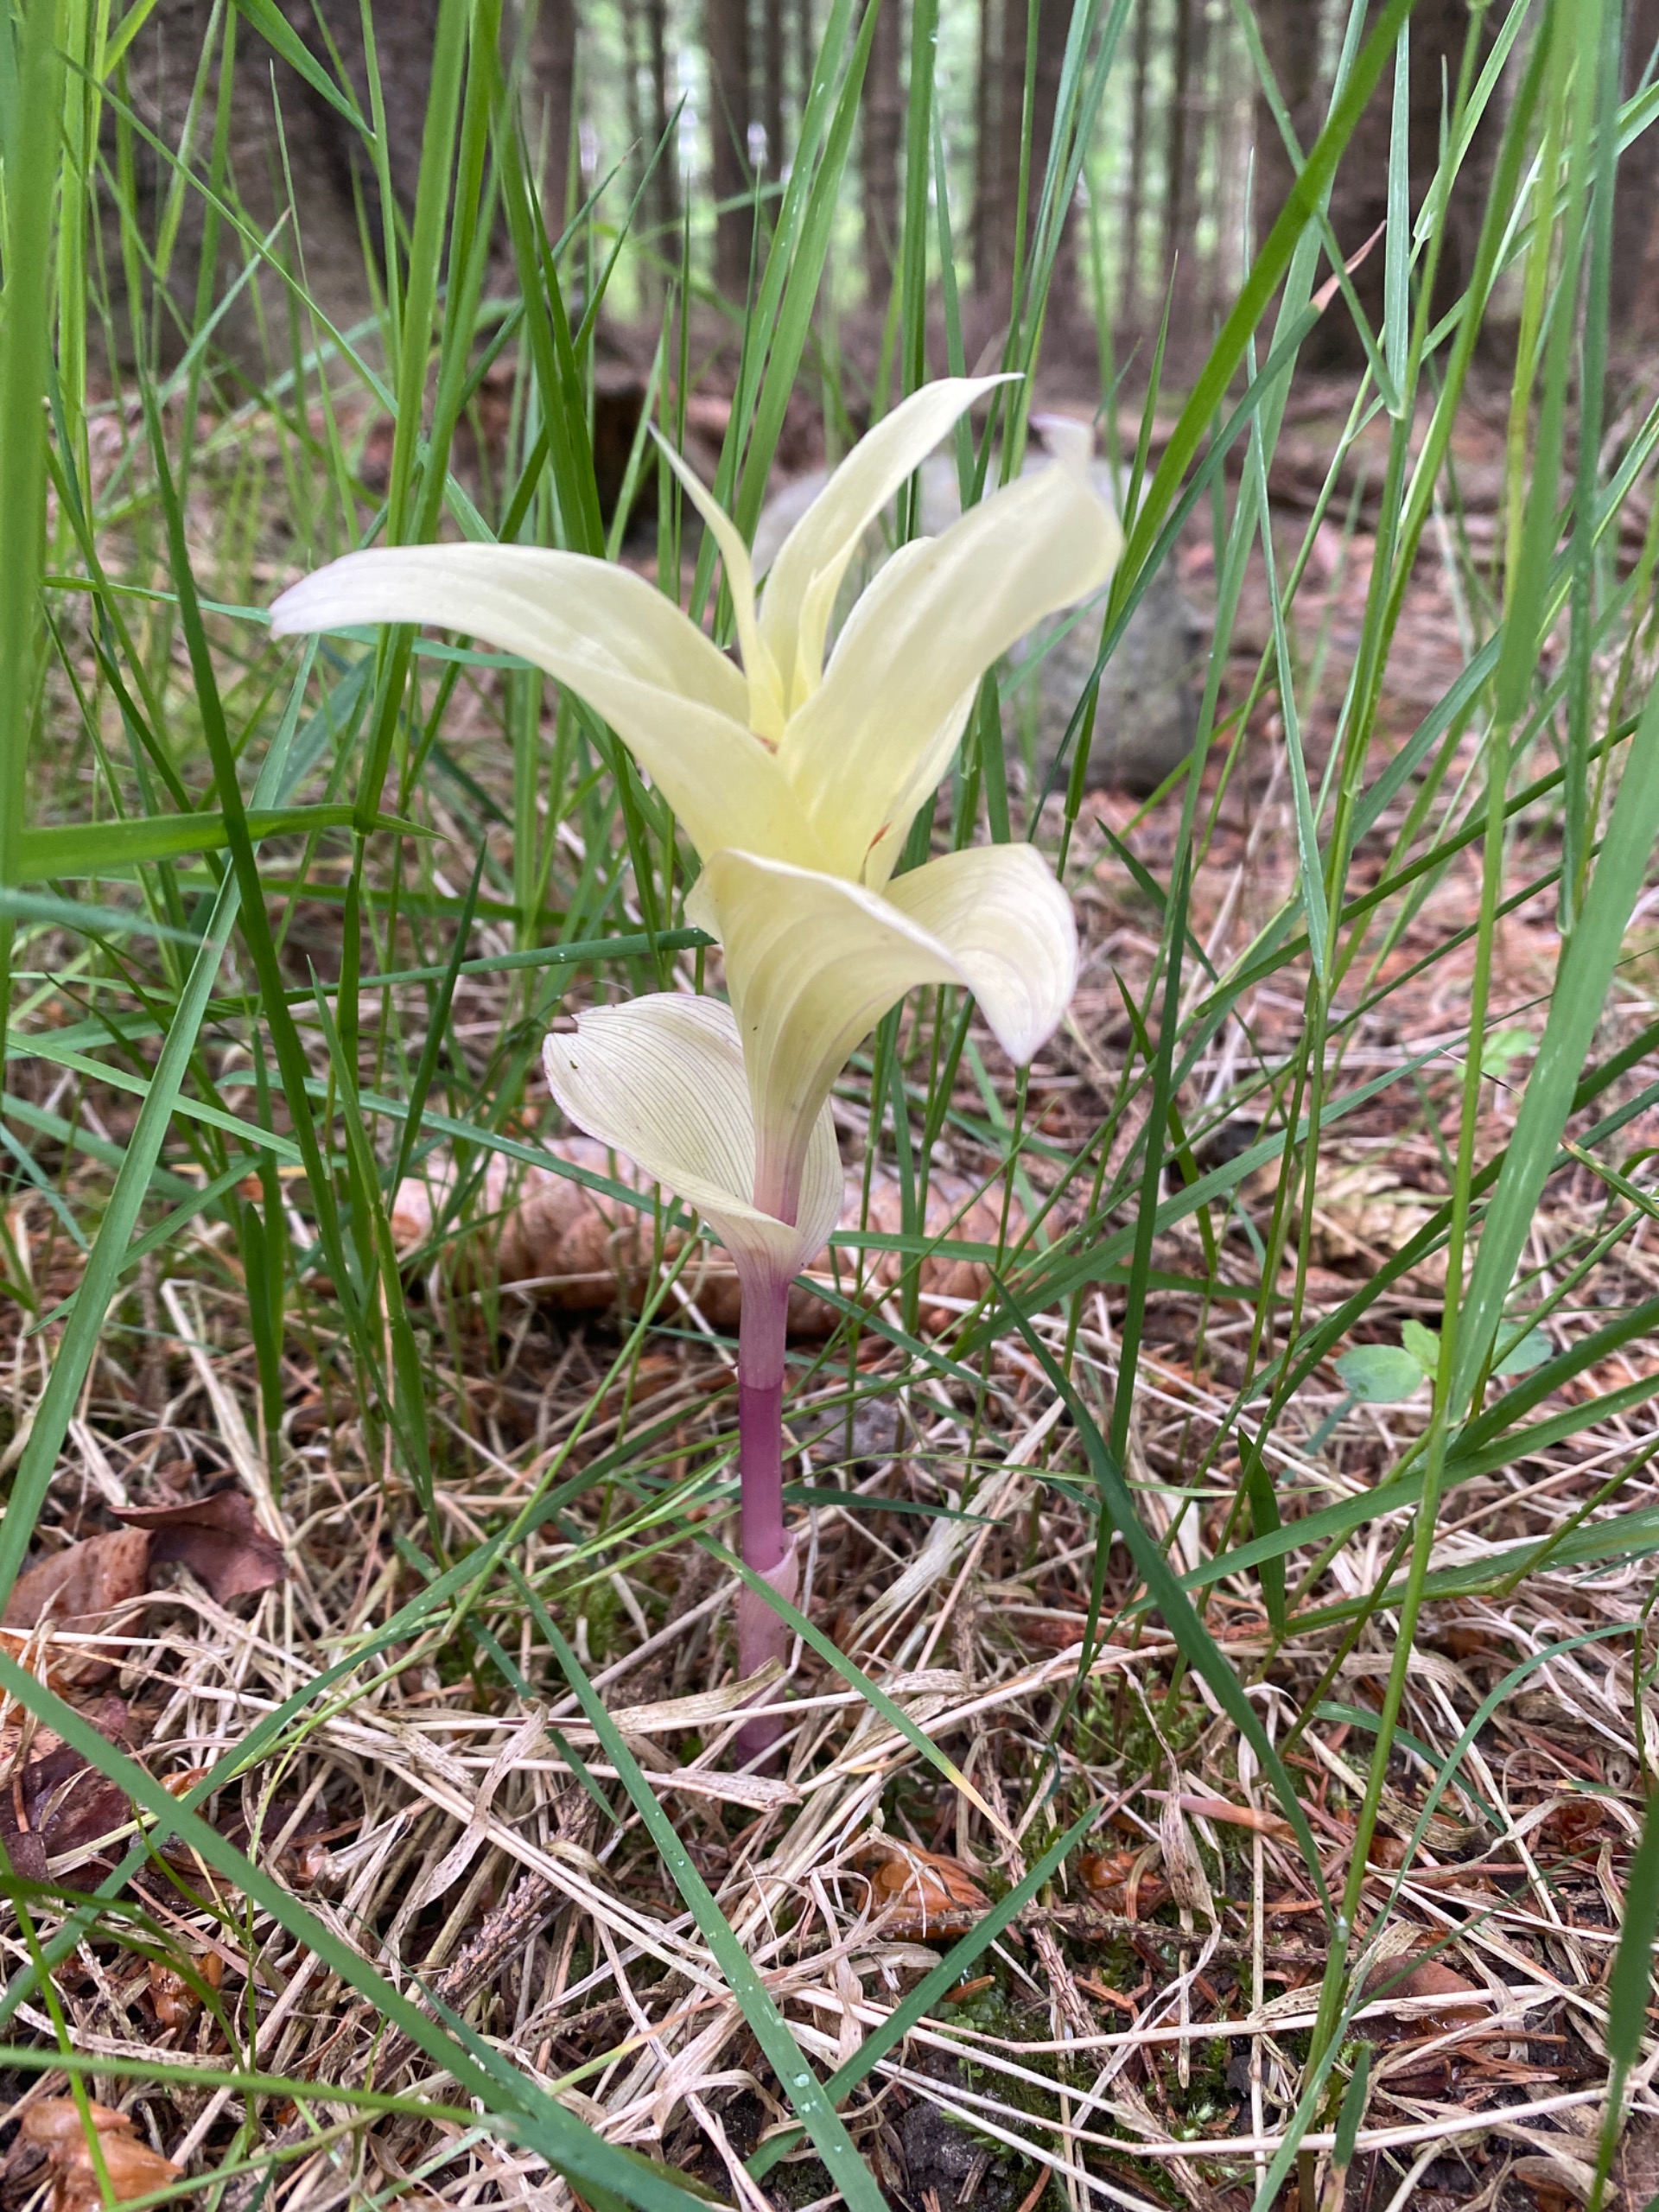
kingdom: Plantae
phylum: Tracheophyta
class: Liliopsida
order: Asparagales
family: Orchidaceae
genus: Epipactis
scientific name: Epipactis helleborine
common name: Skov-hullæbe
